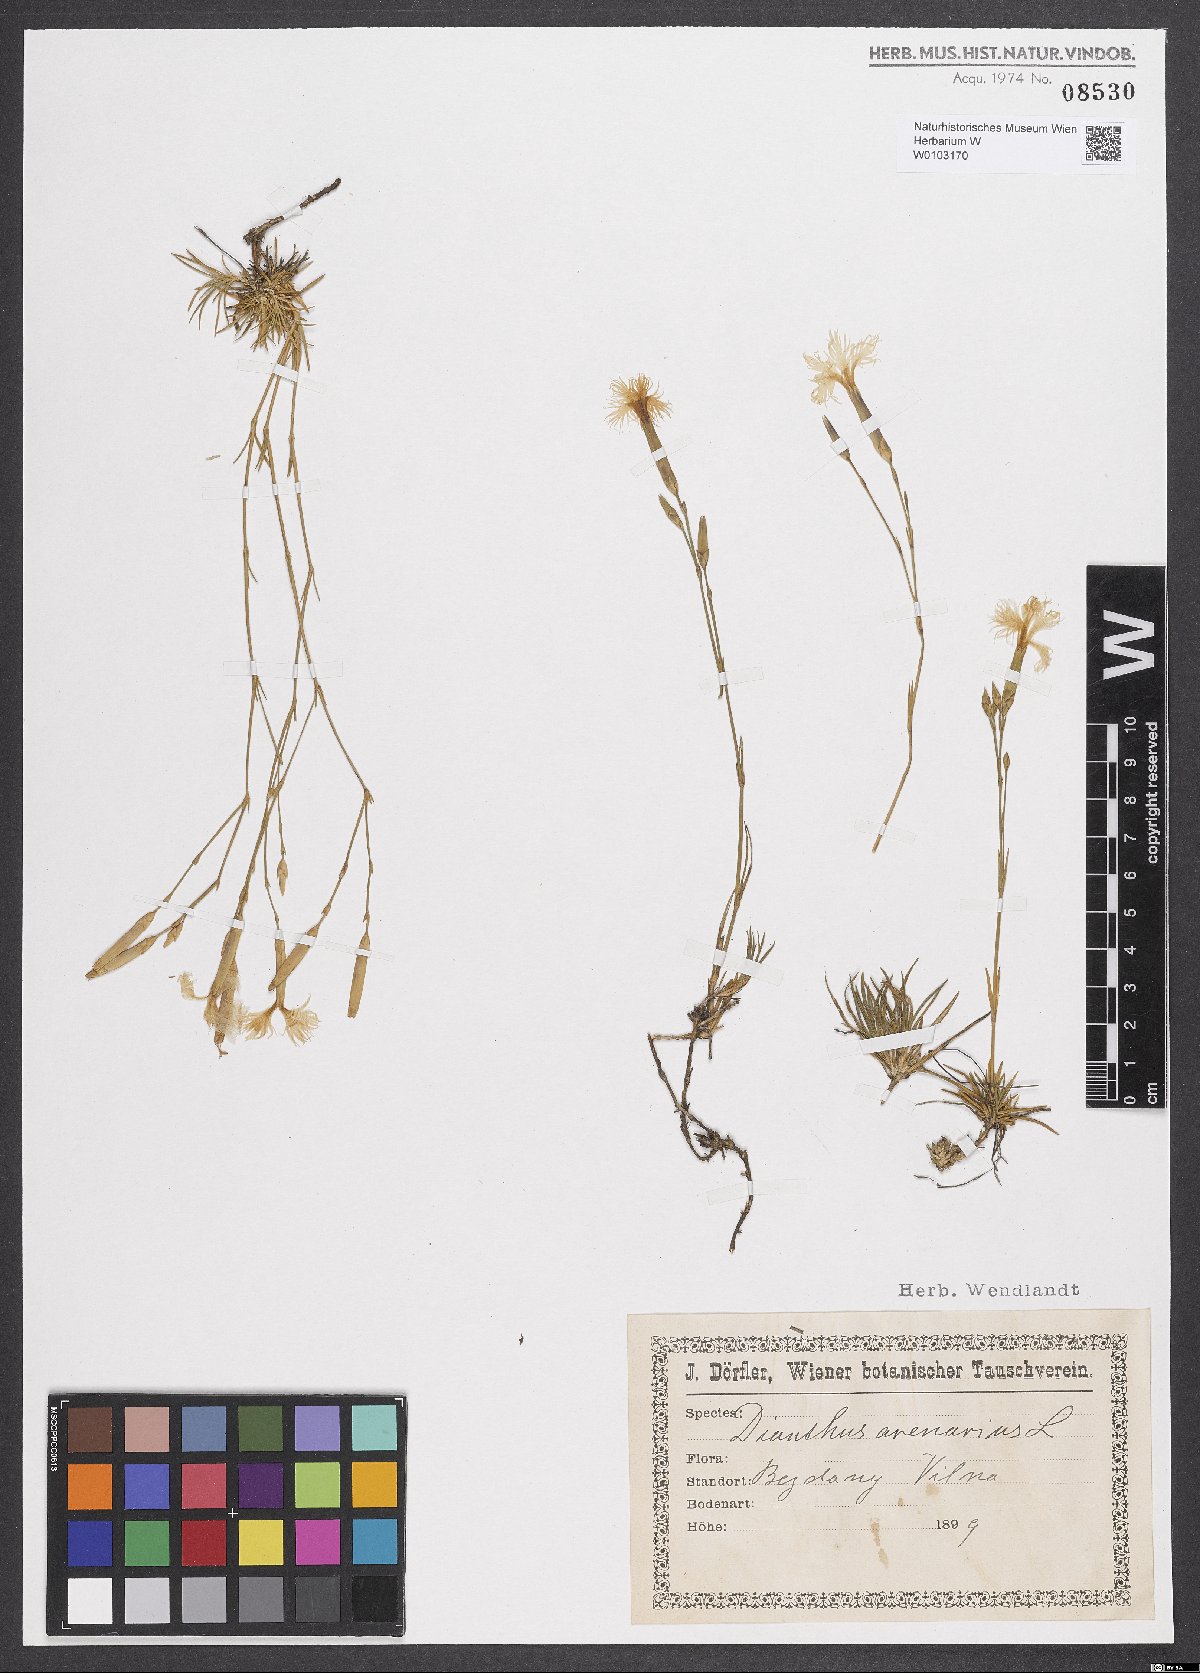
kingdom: Plantae
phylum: Tracheophyta
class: Magnoliopsida
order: Caryophyllales
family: Caryophyllaceae
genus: Dianthus
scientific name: Dianthus arenarius
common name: Stone pink
